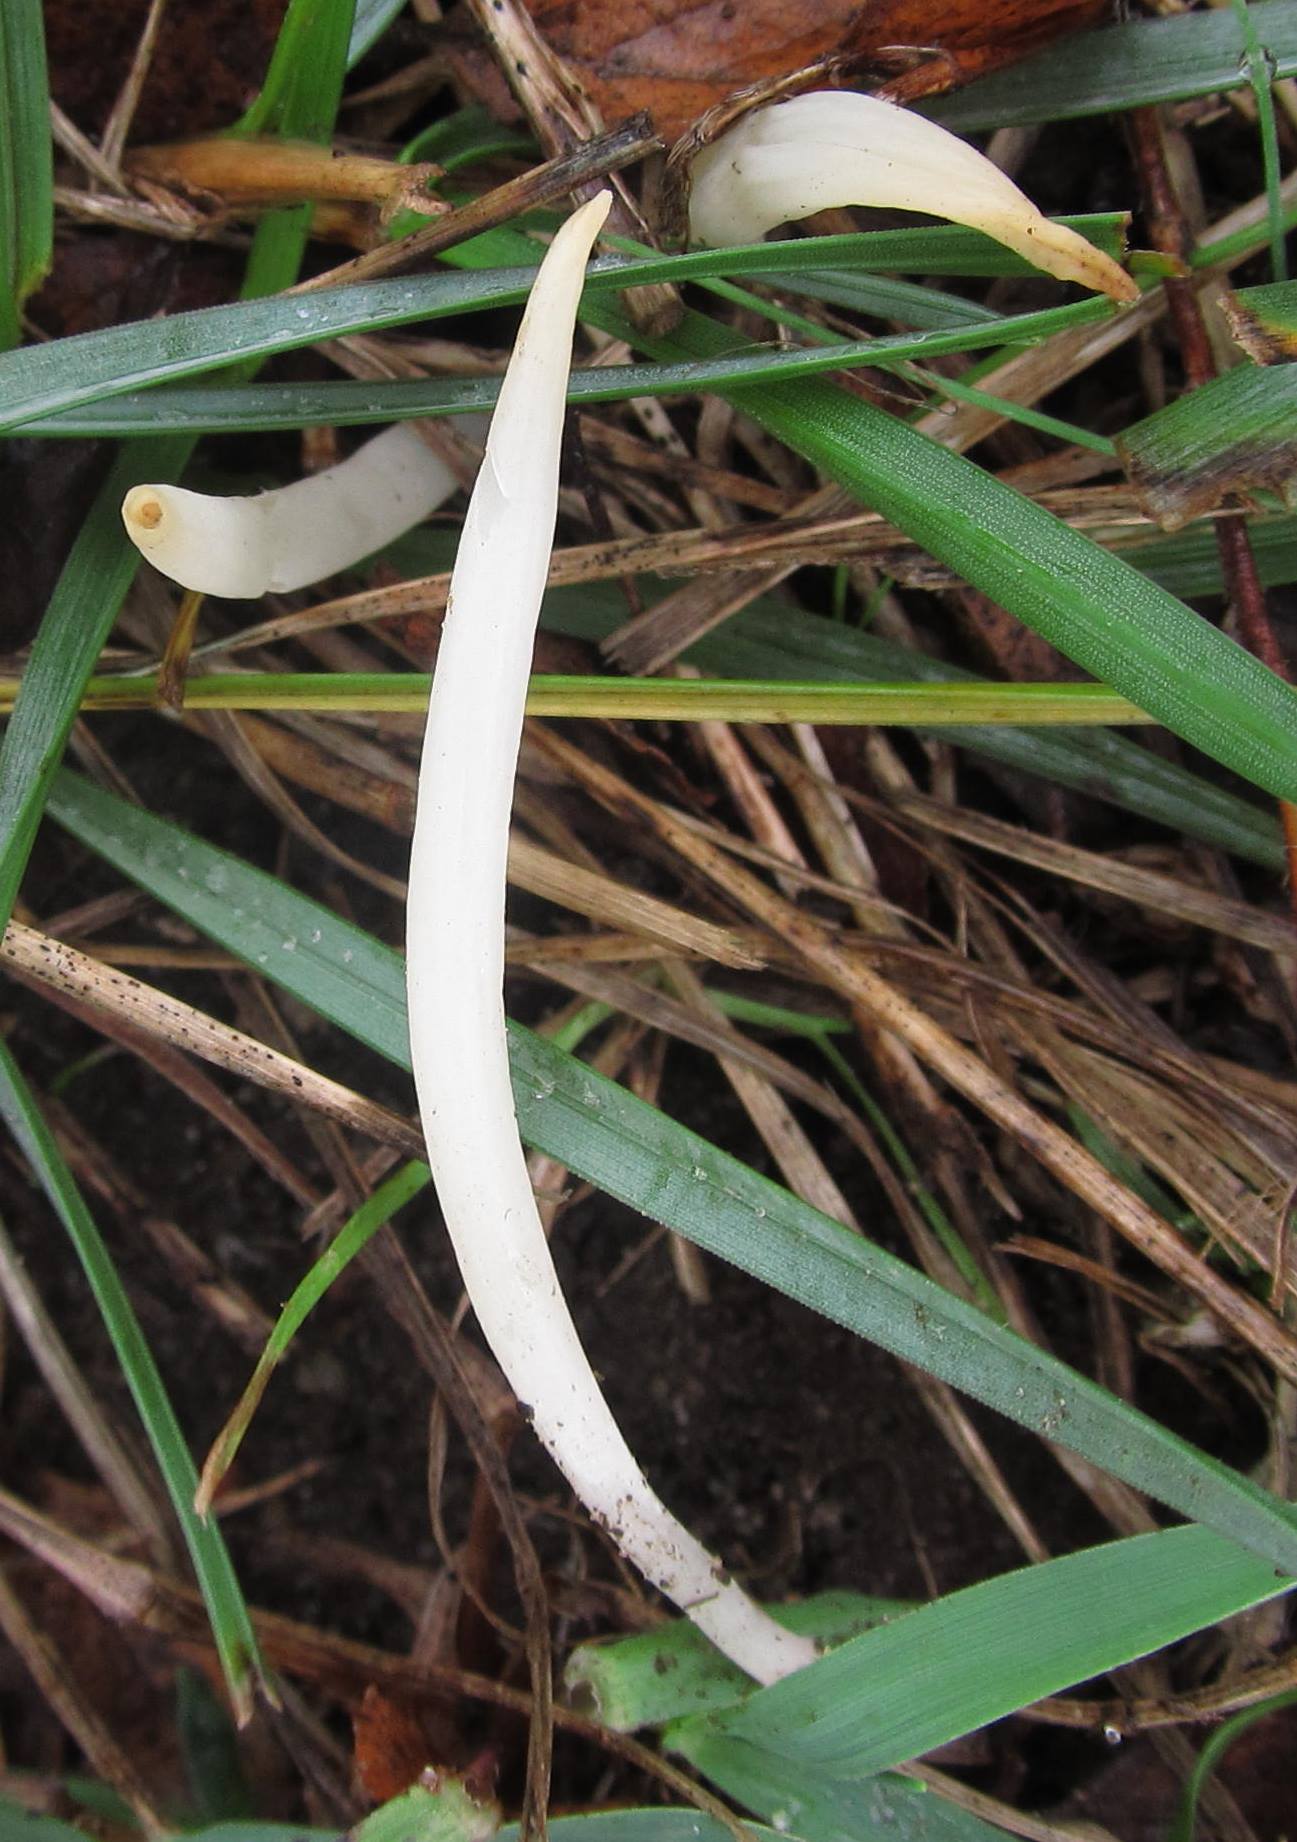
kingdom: Fungi
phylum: Basidiomycota
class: Agaricomycetes
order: Agaricales
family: Clavariaceae
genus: Clavaria
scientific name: Clavaria fragilis
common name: bugtet køllesvamp
